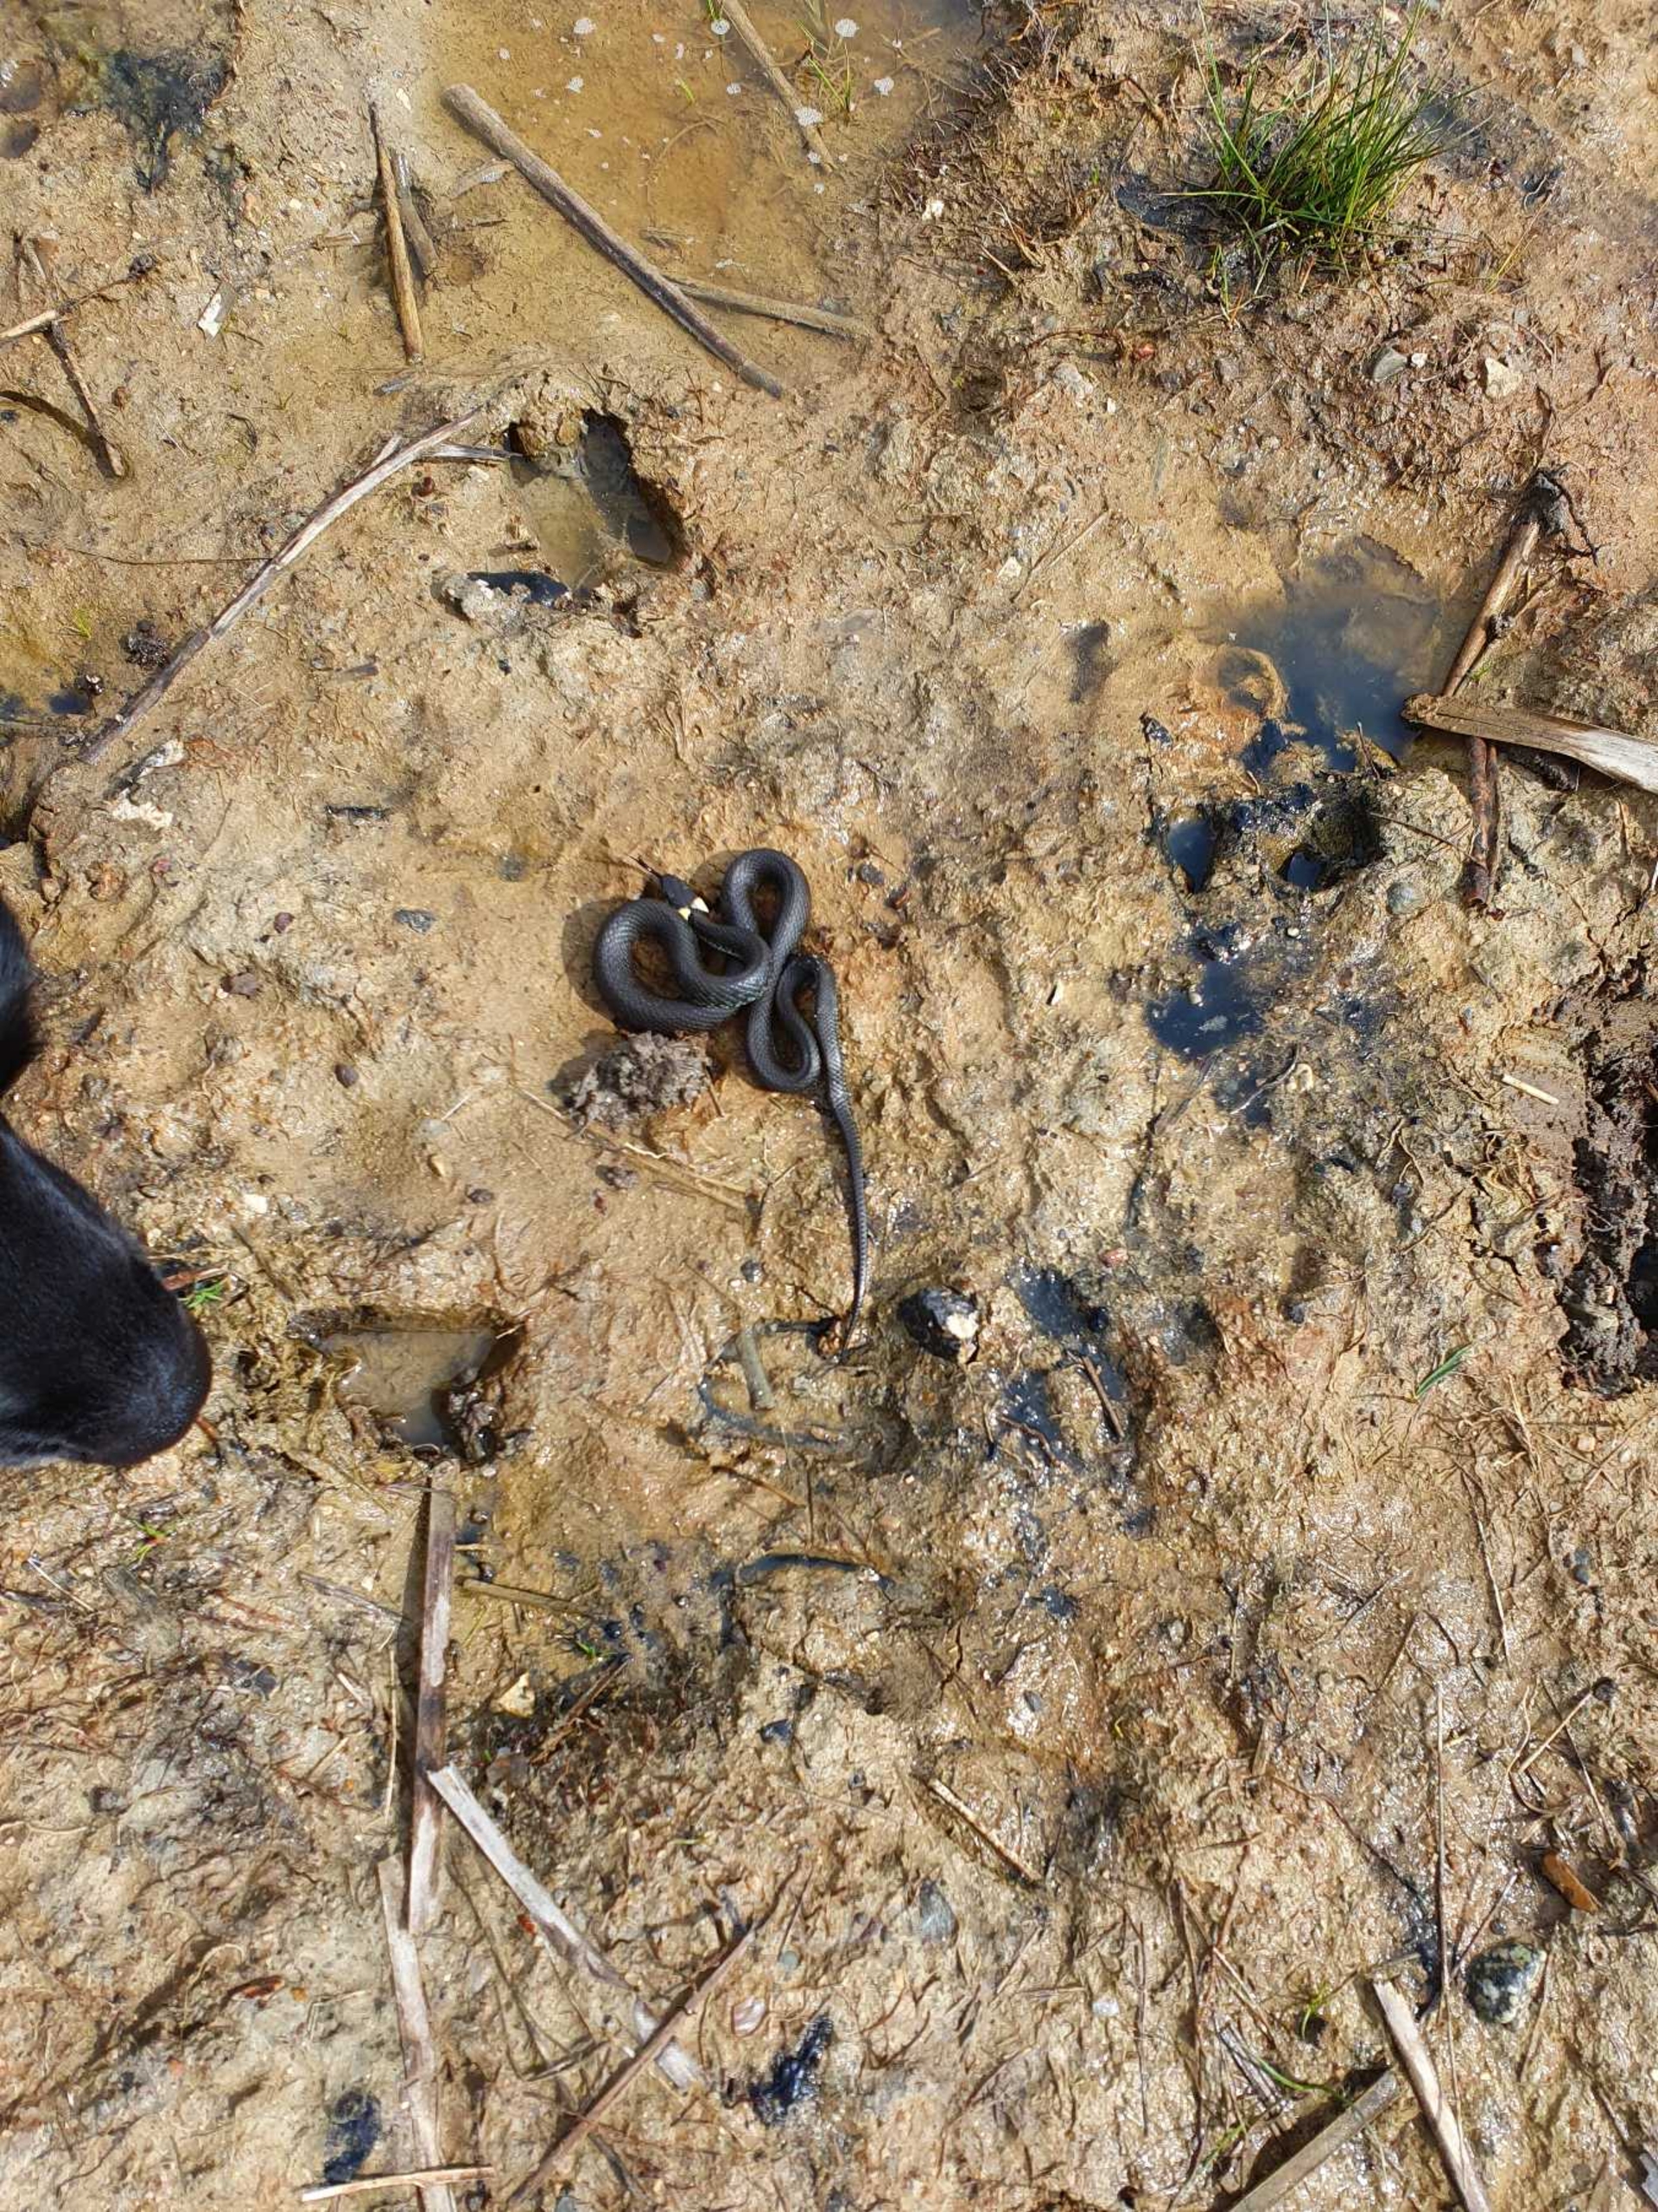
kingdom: Animalia
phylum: Chordata
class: Squamata
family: Colubridae
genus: Natrix
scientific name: Natrix natrix
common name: Snog
